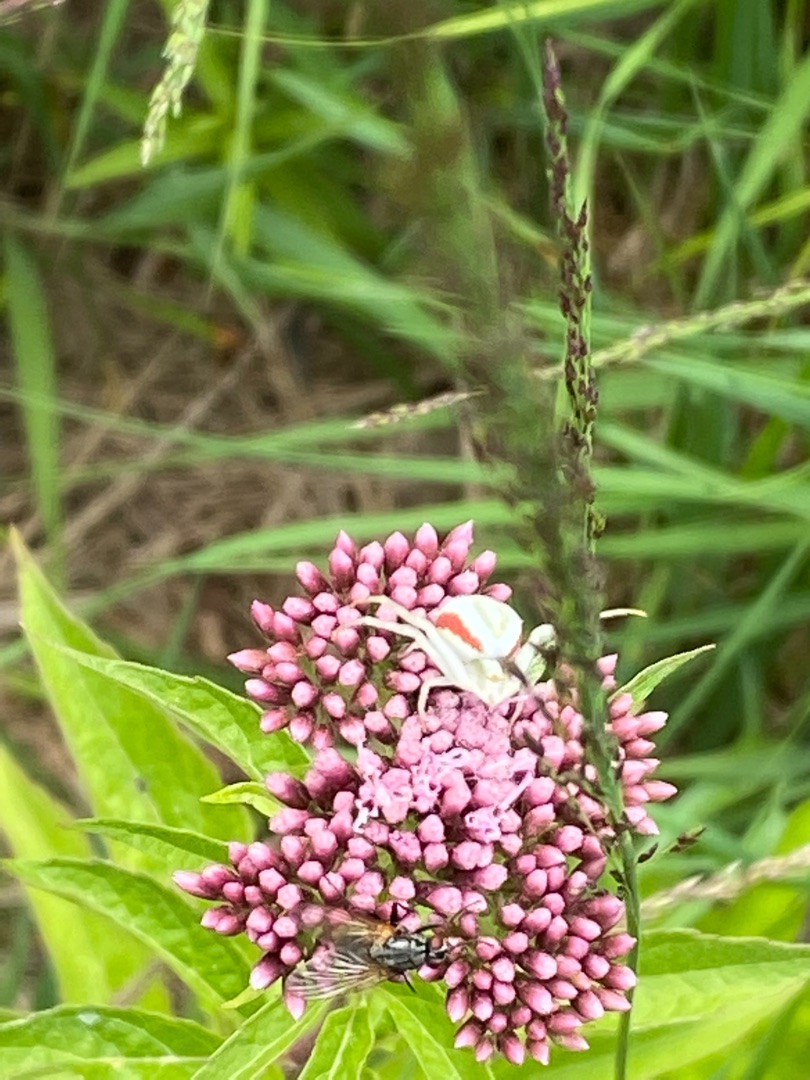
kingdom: Animalia
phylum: Arthropoda
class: Arachnida
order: Araneae
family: Thomisidae
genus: Misumena
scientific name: Misumena vatia
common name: Kamæleonedderkop
